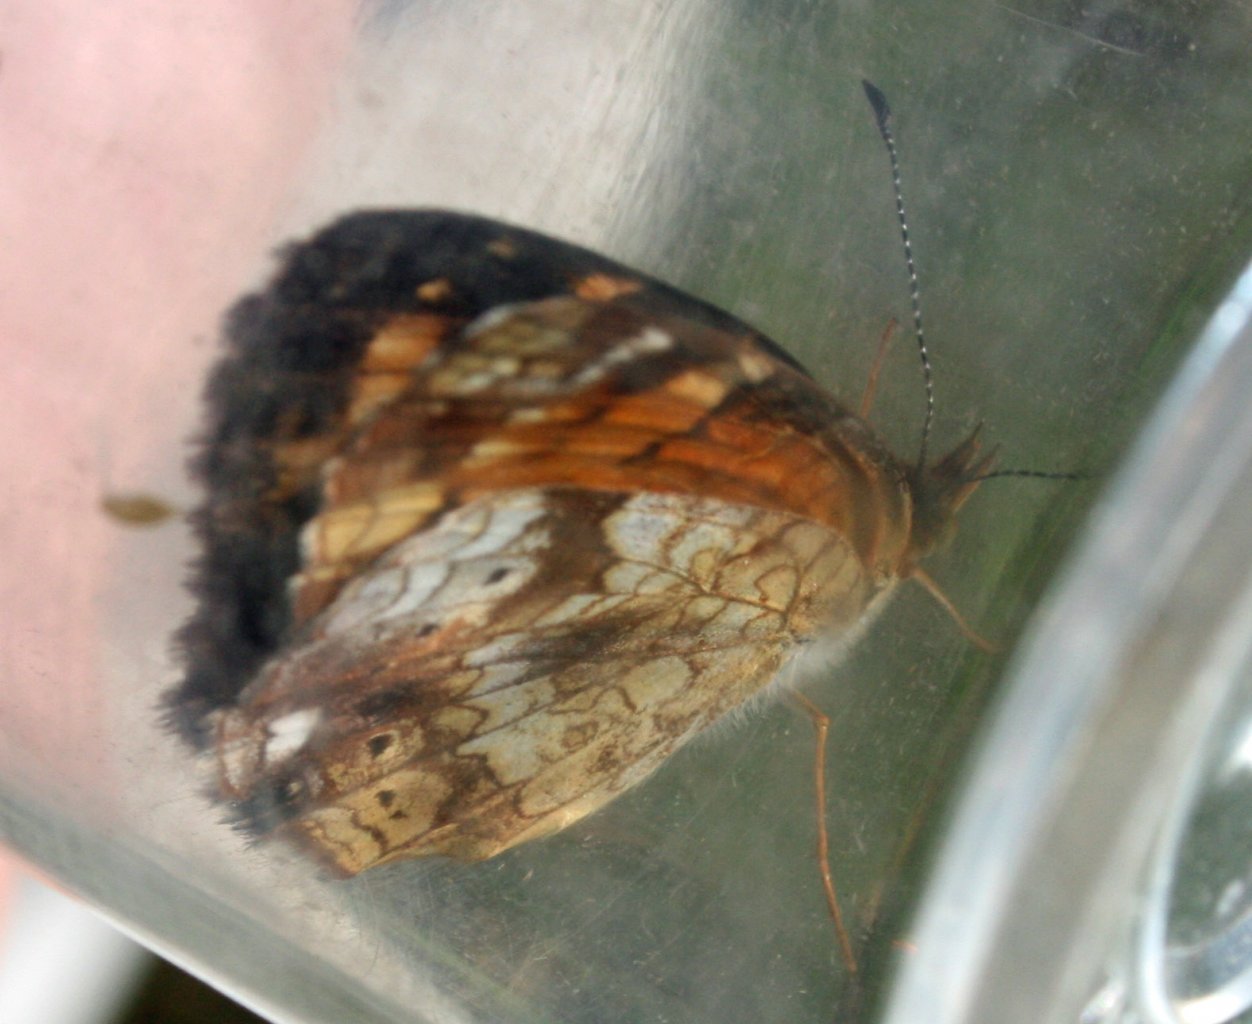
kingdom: Animalia
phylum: Arthropoda
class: Insecta
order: Lepidoptera
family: Nymphalidae
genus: Phyciodes
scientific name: Phyciodes tharos
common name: Pearl Crescent
